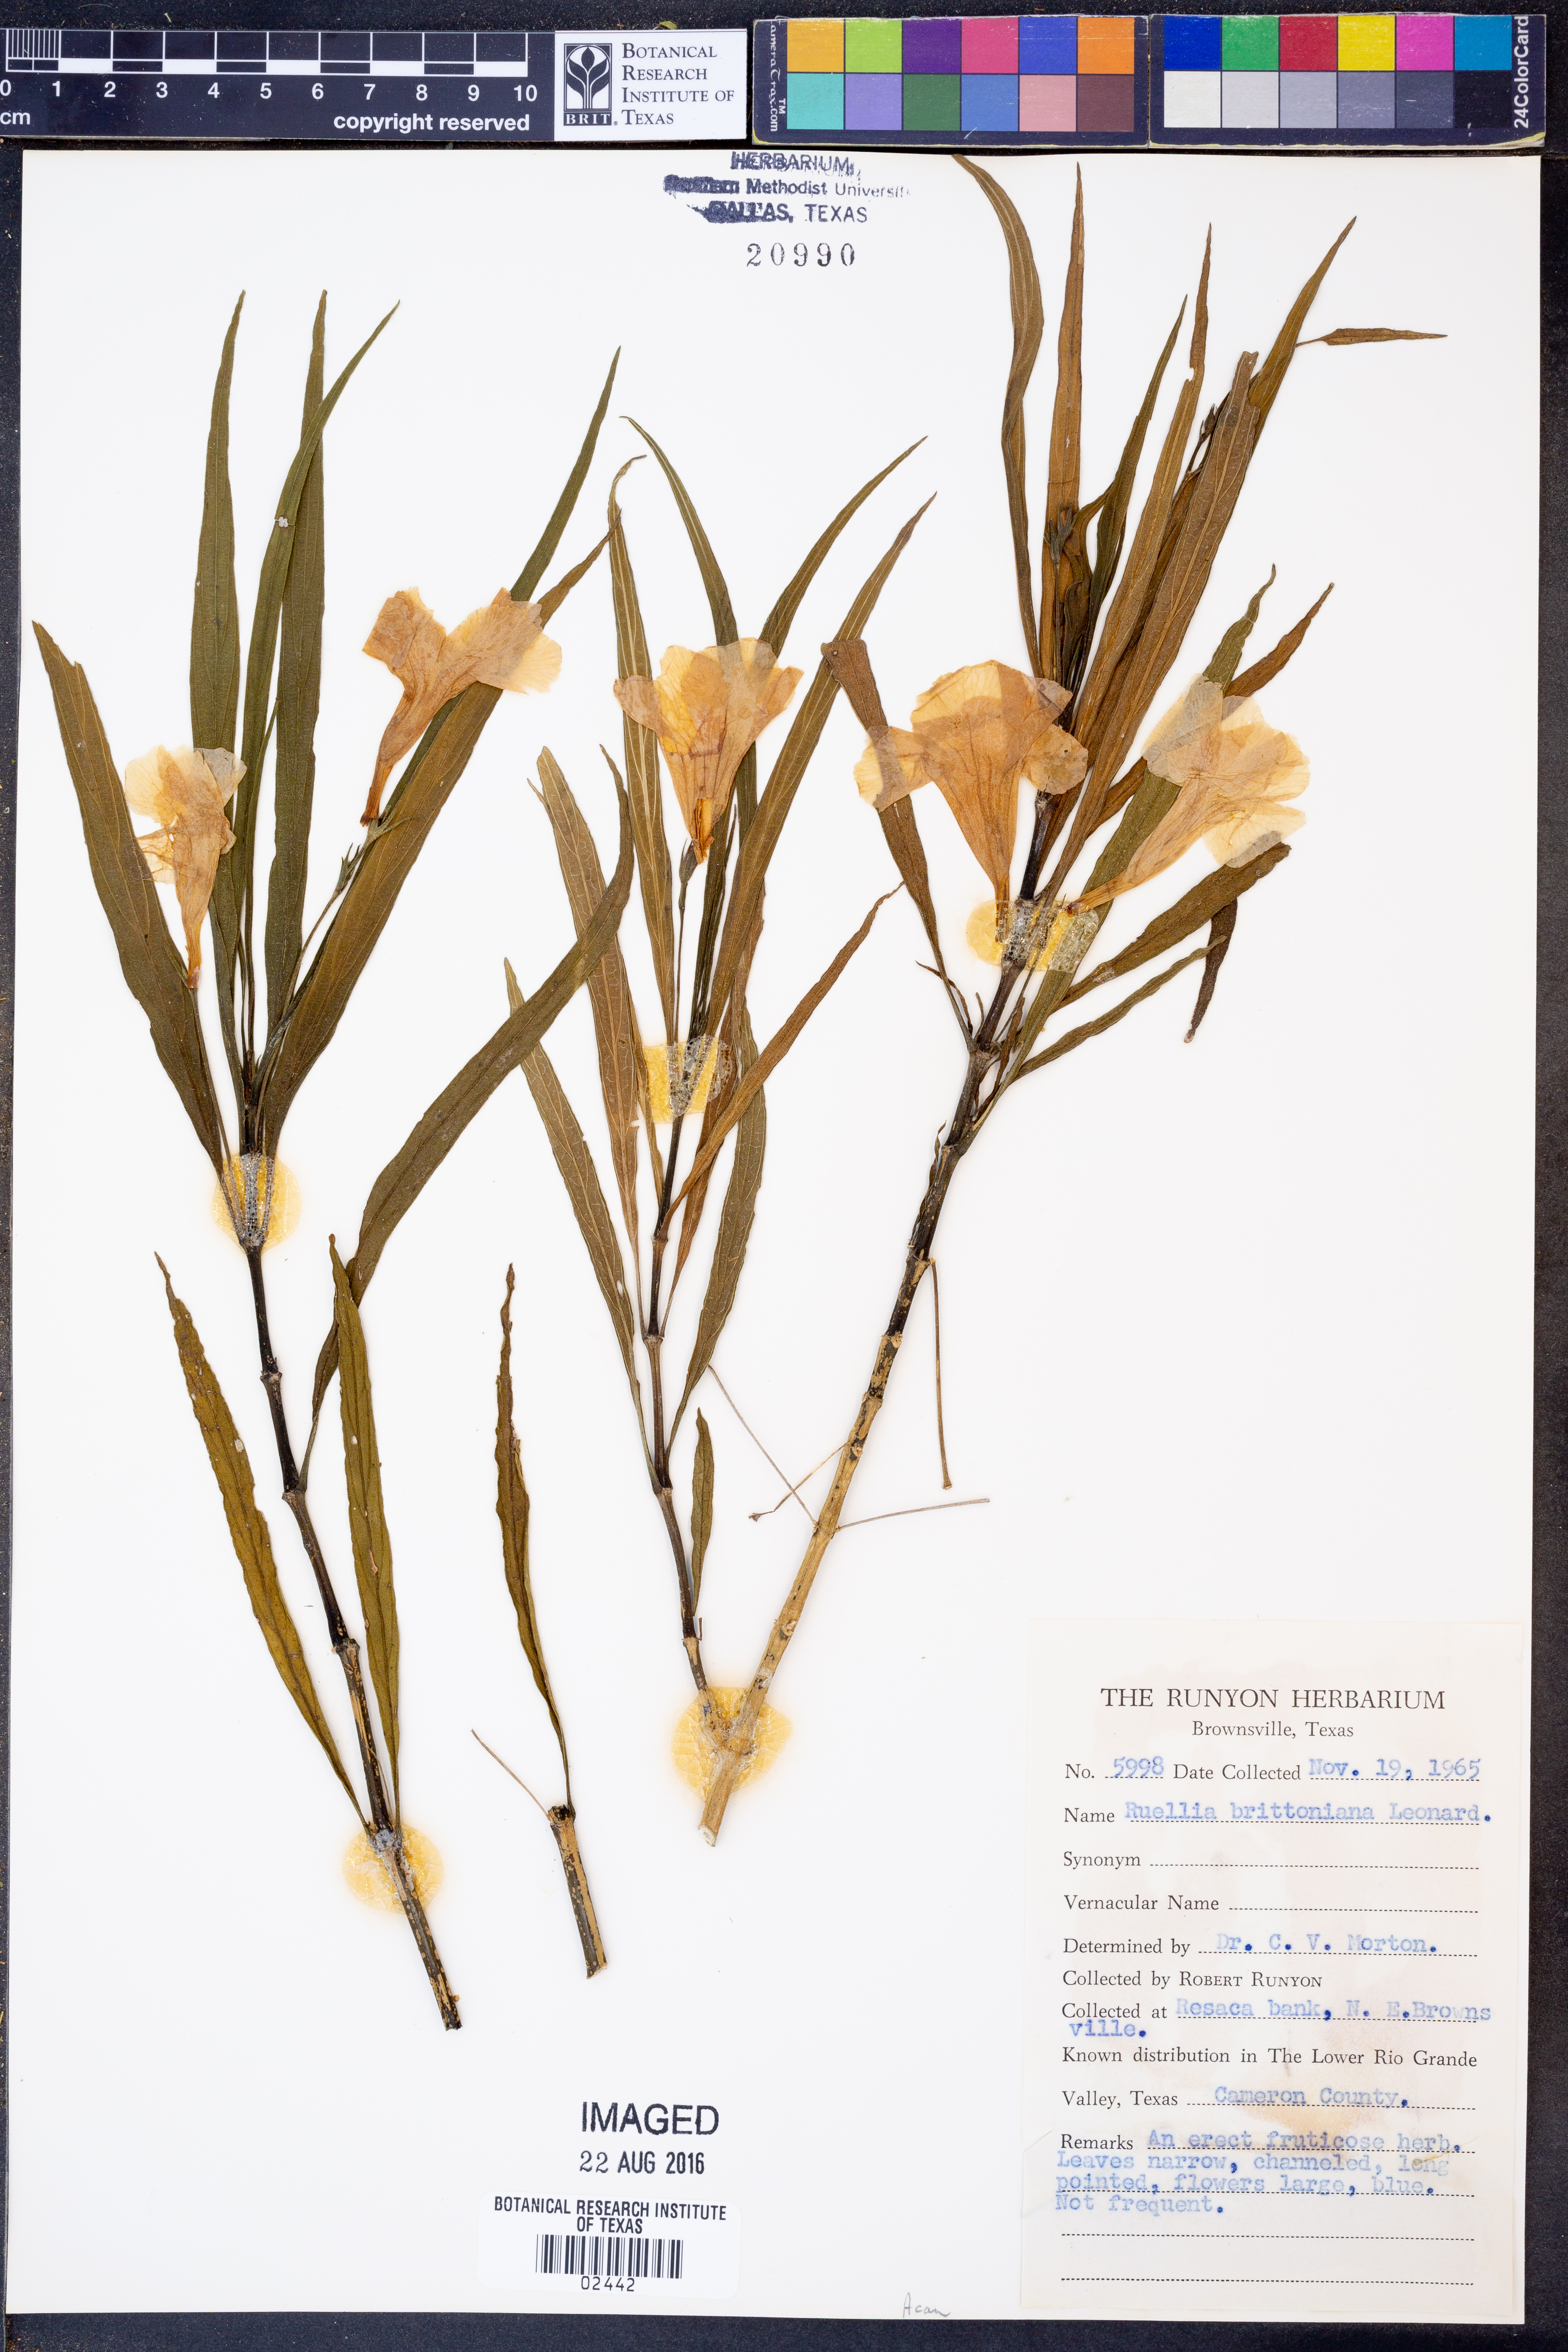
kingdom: Plantae
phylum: Tracheophyta
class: Magnoliopsida
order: Lamiales
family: Acanthaceae
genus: Ruellia
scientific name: Ruellia simplex
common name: Softseed wild petunia
